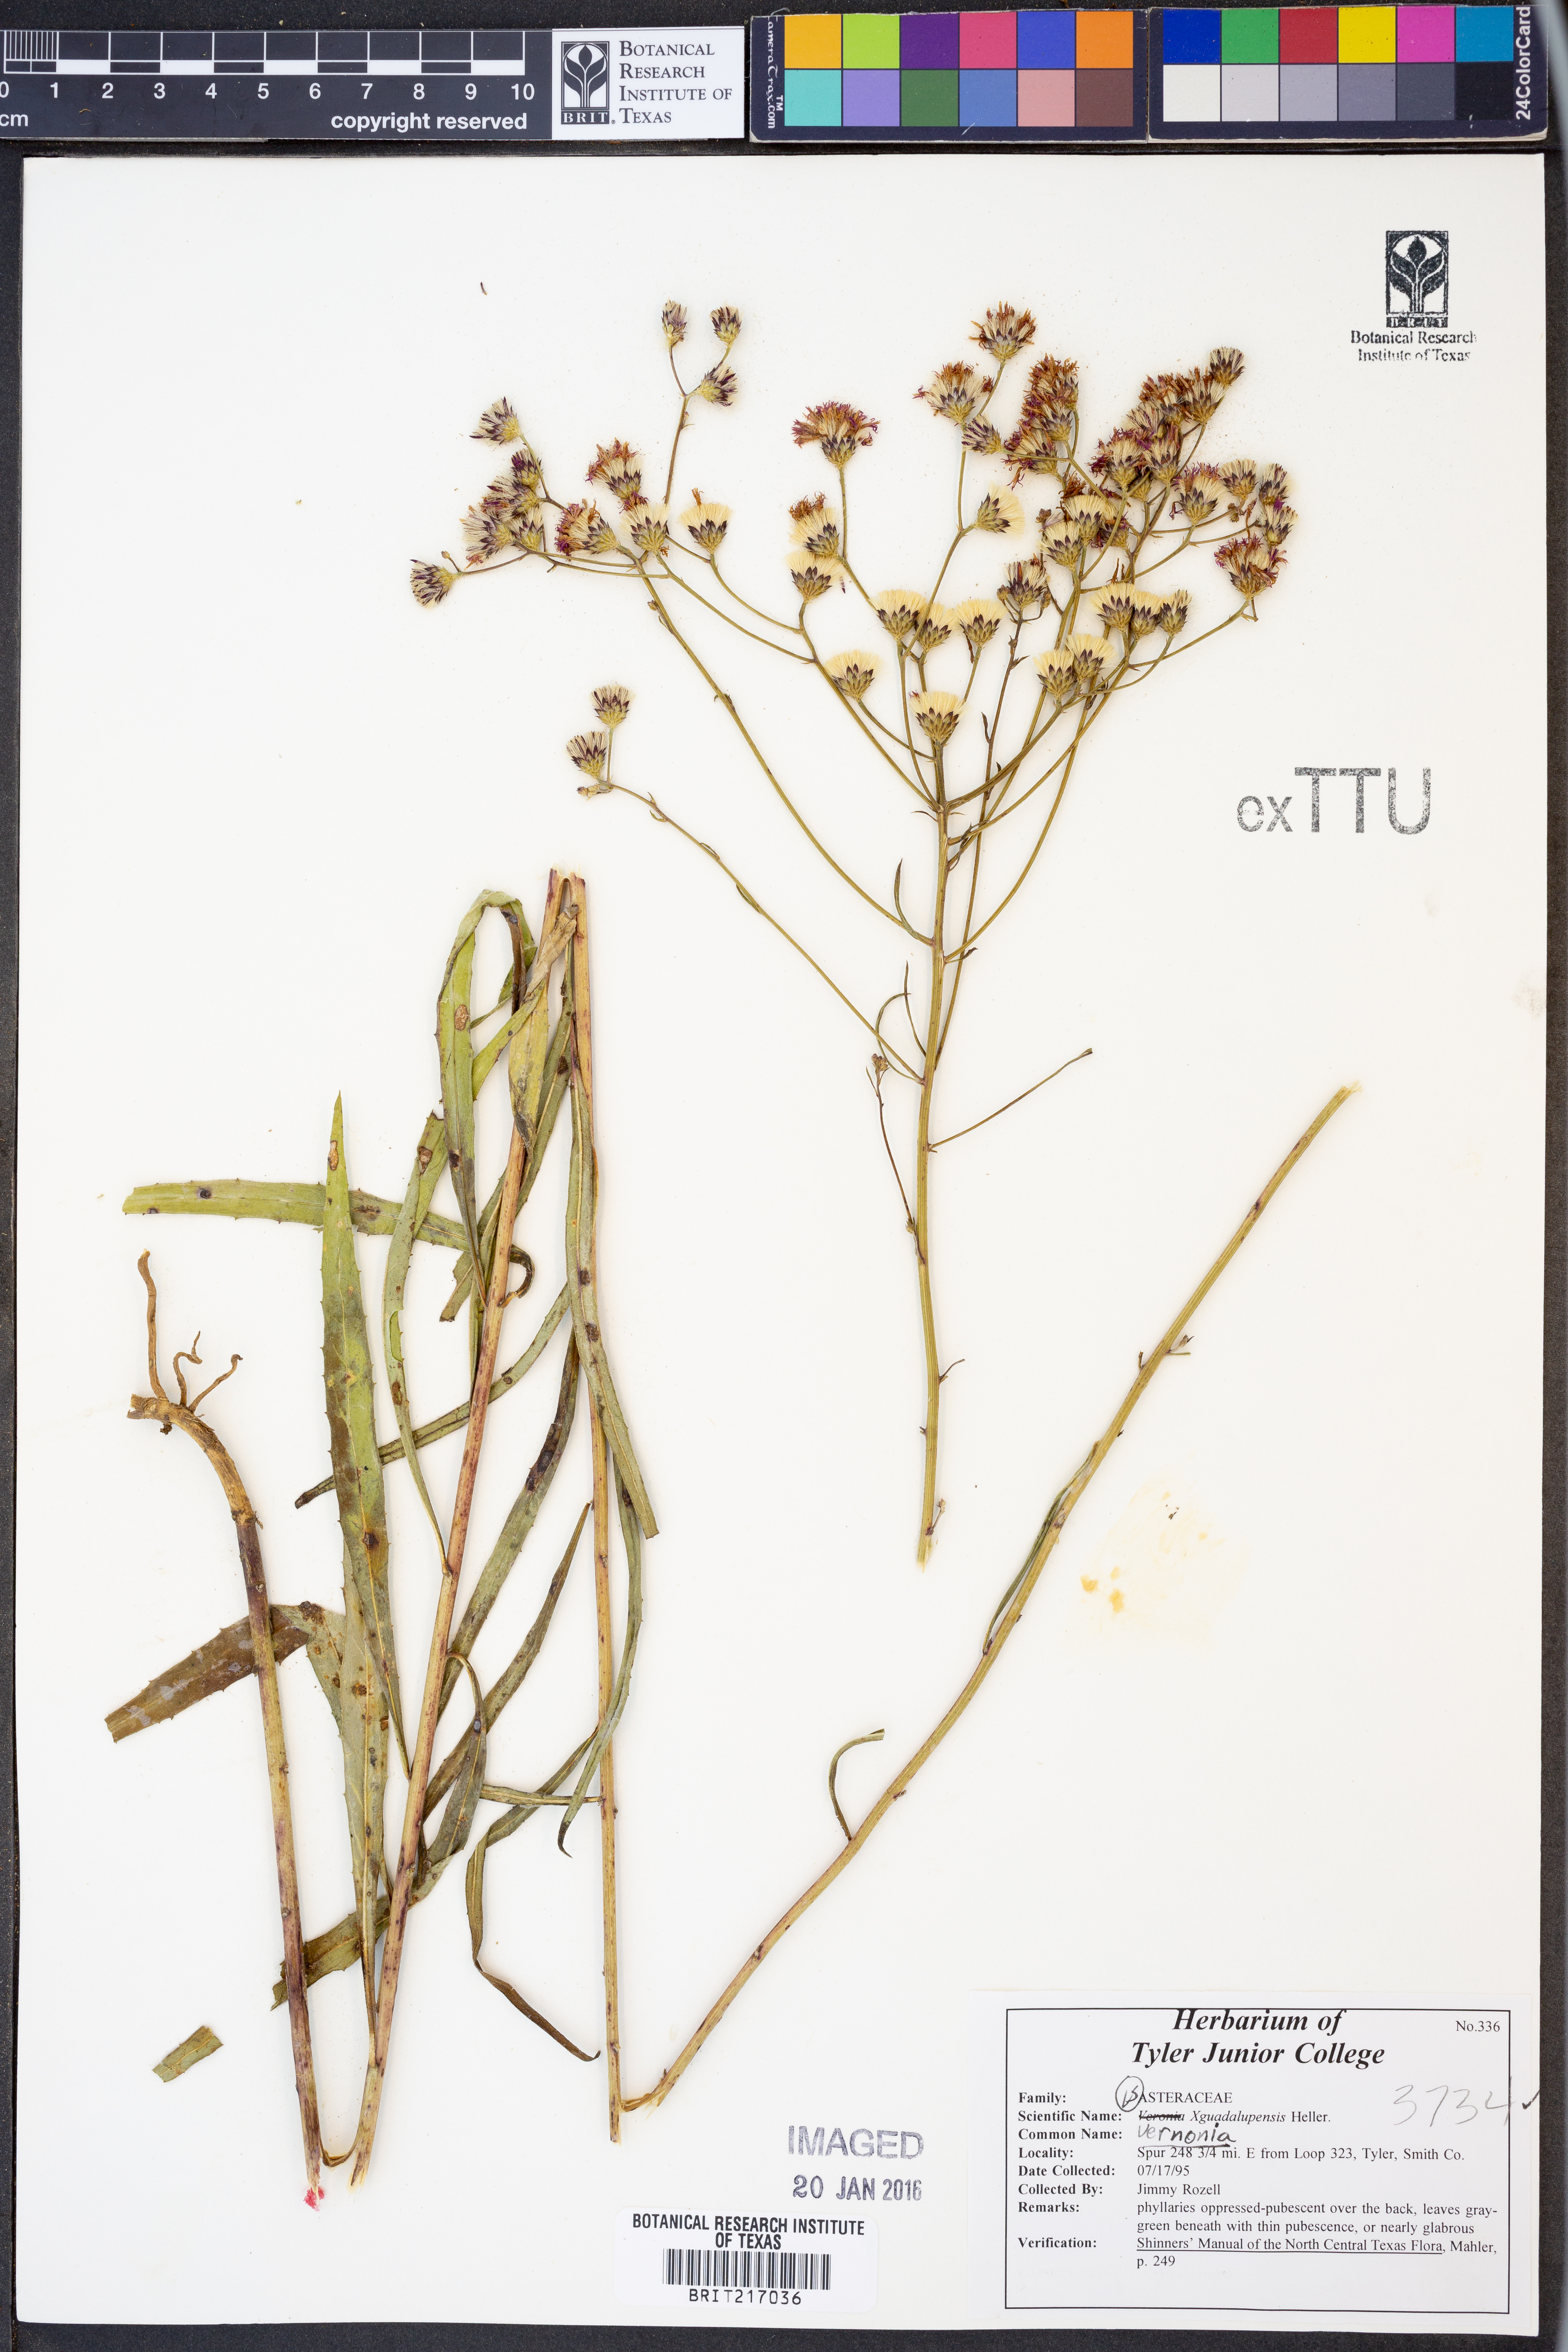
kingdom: Plantae
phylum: Tracheophyta
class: Magnoliopsida
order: Asterales
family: Asteraceae
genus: Vernonia
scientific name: Vernonia
